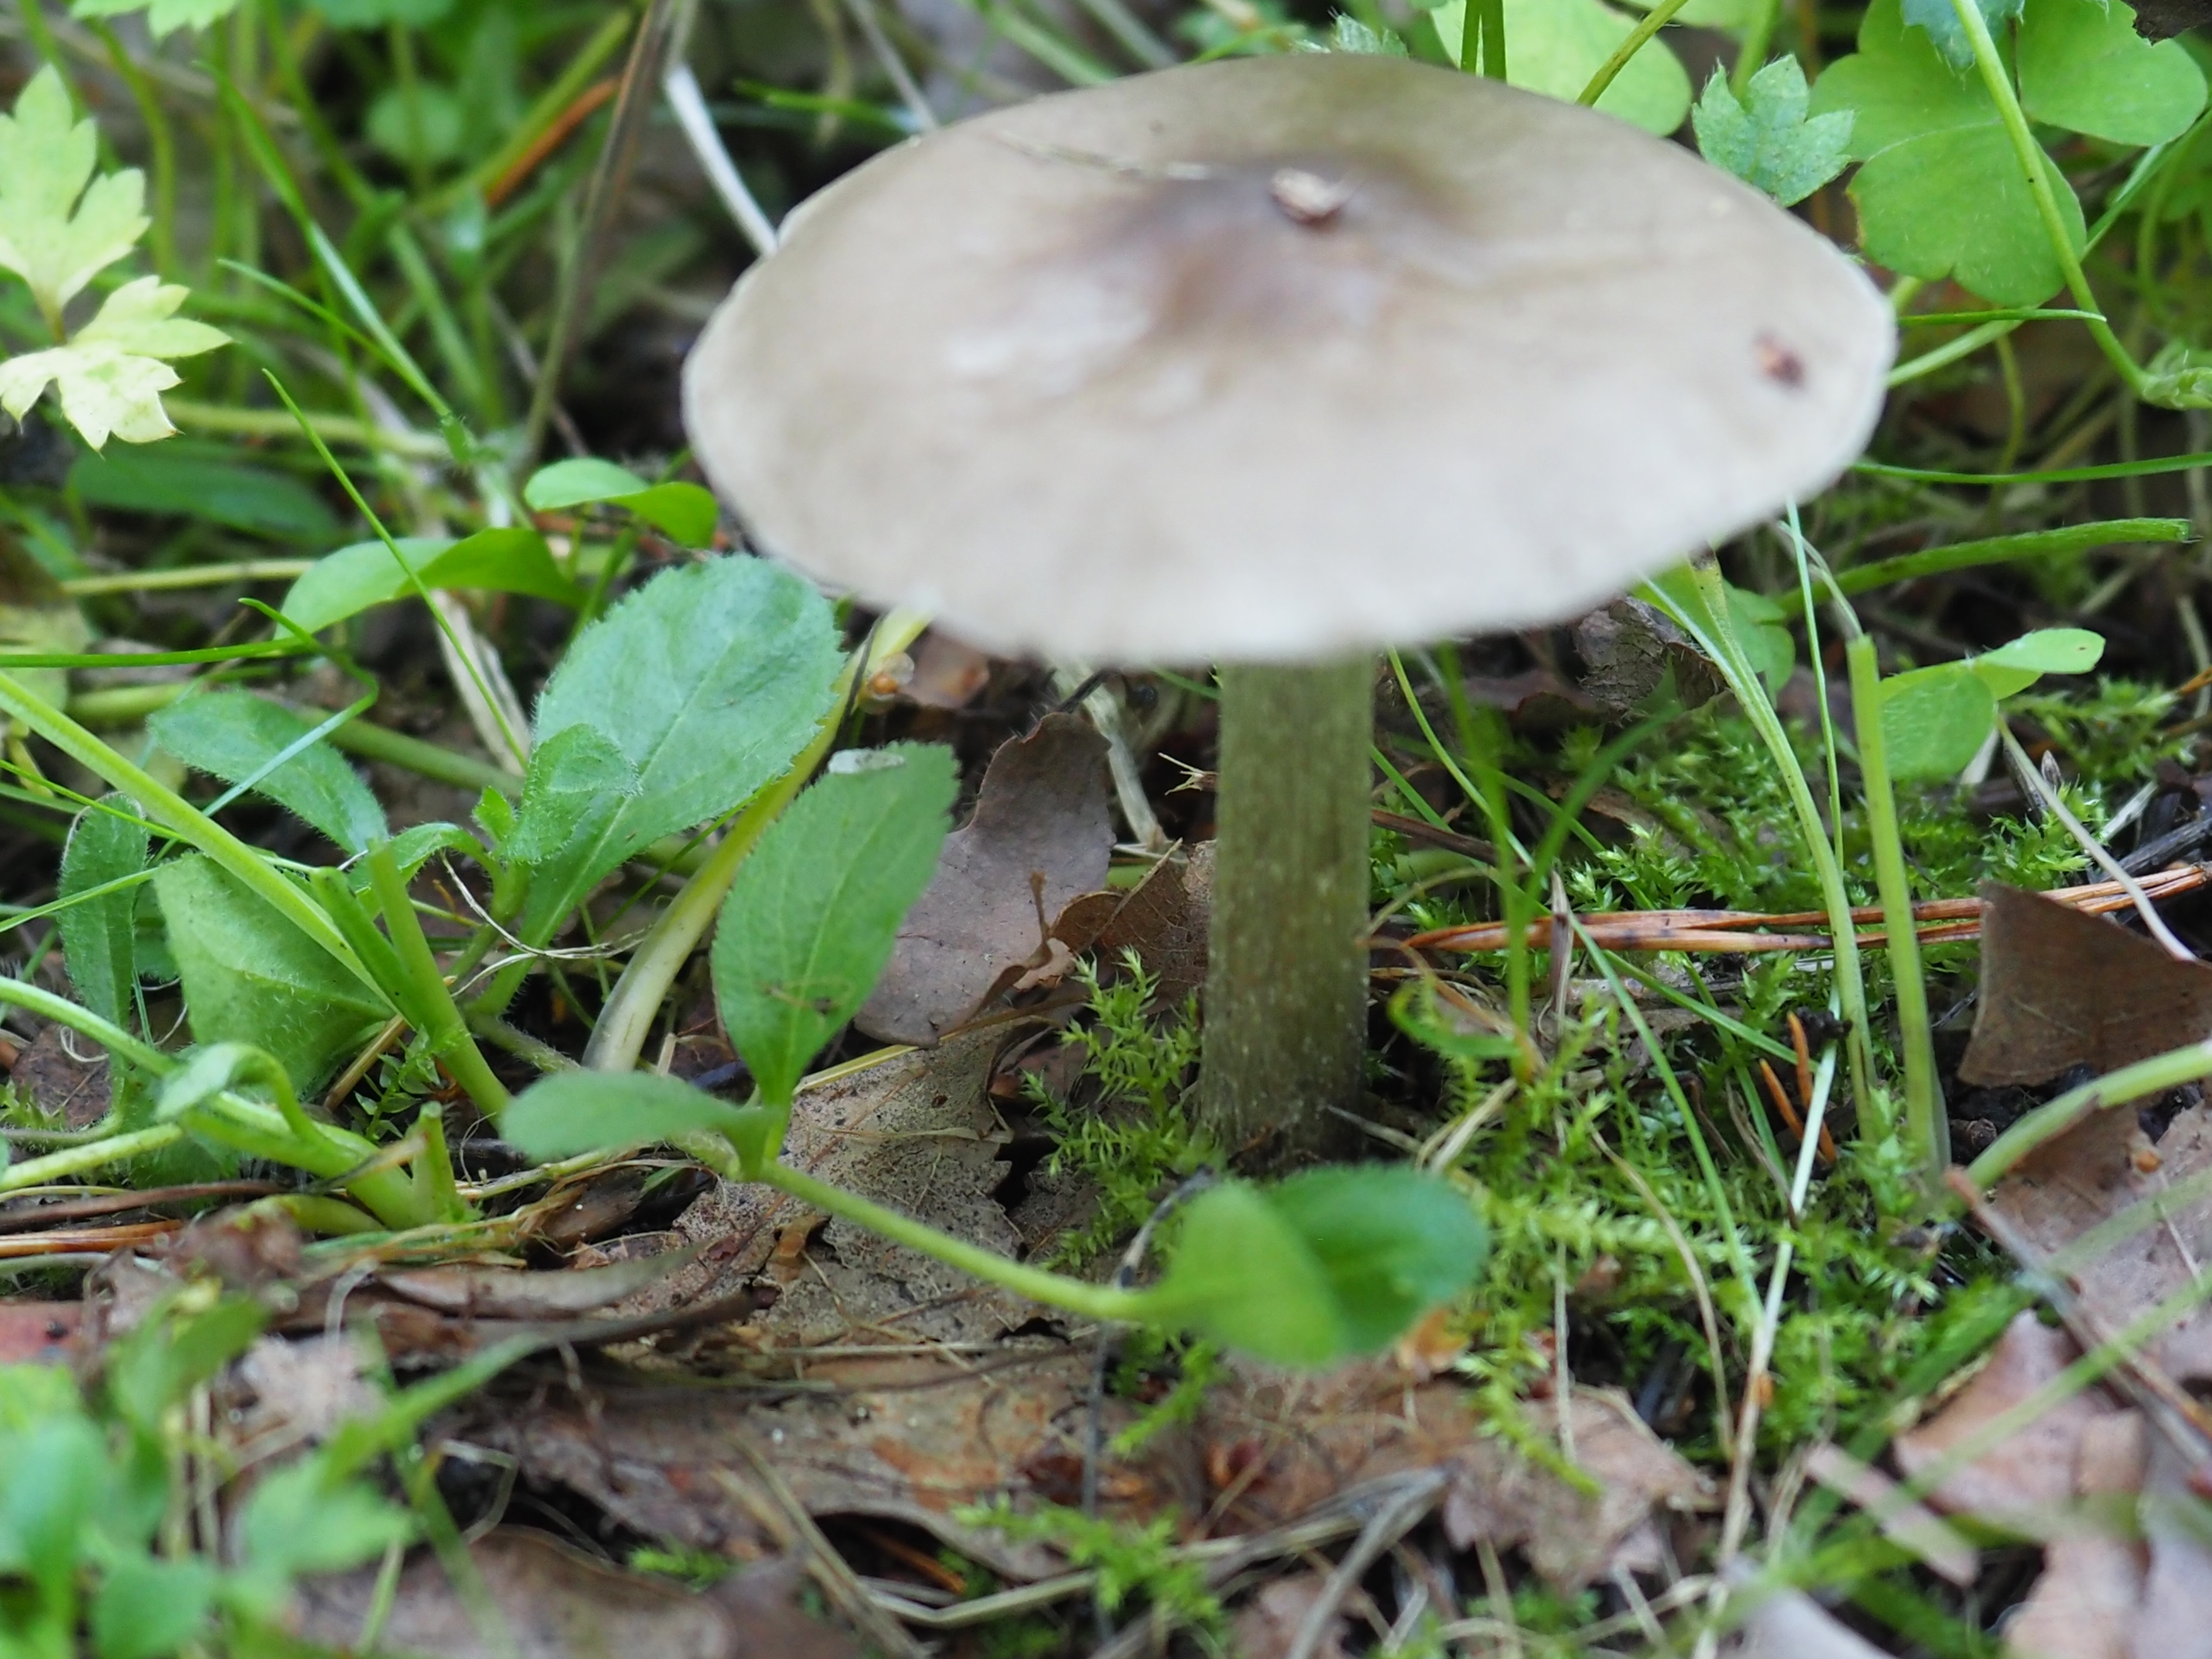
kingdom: Fungi
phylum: Basidiomycota
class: Agaricomycetes
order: Agaricales
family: Tricholomataceae
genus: Melanoleuca
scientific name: Melanoleuca polioleuca
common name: Common cavalier
